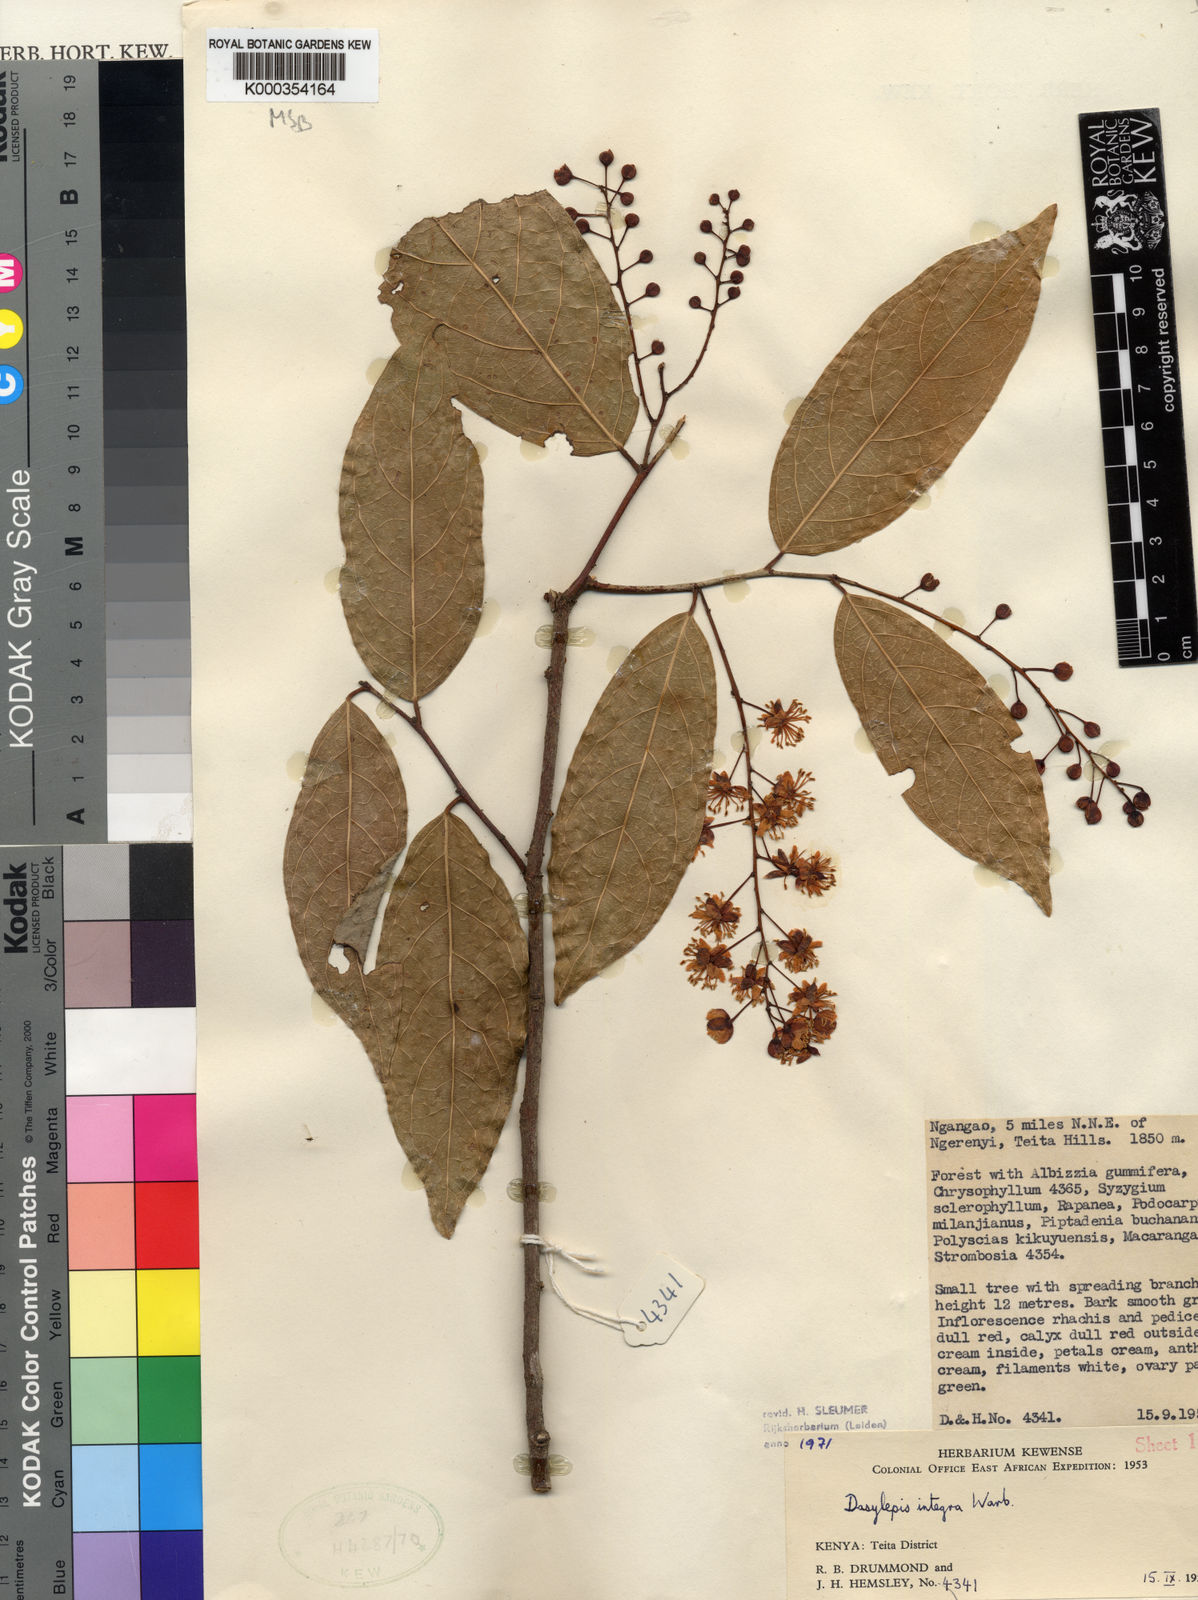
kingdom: Plantae
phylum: Tracheophyta
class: Magnoliopsida
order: Malpighiales
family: Achariaceae
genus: Dasylepis
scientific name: Dasylepis integra
